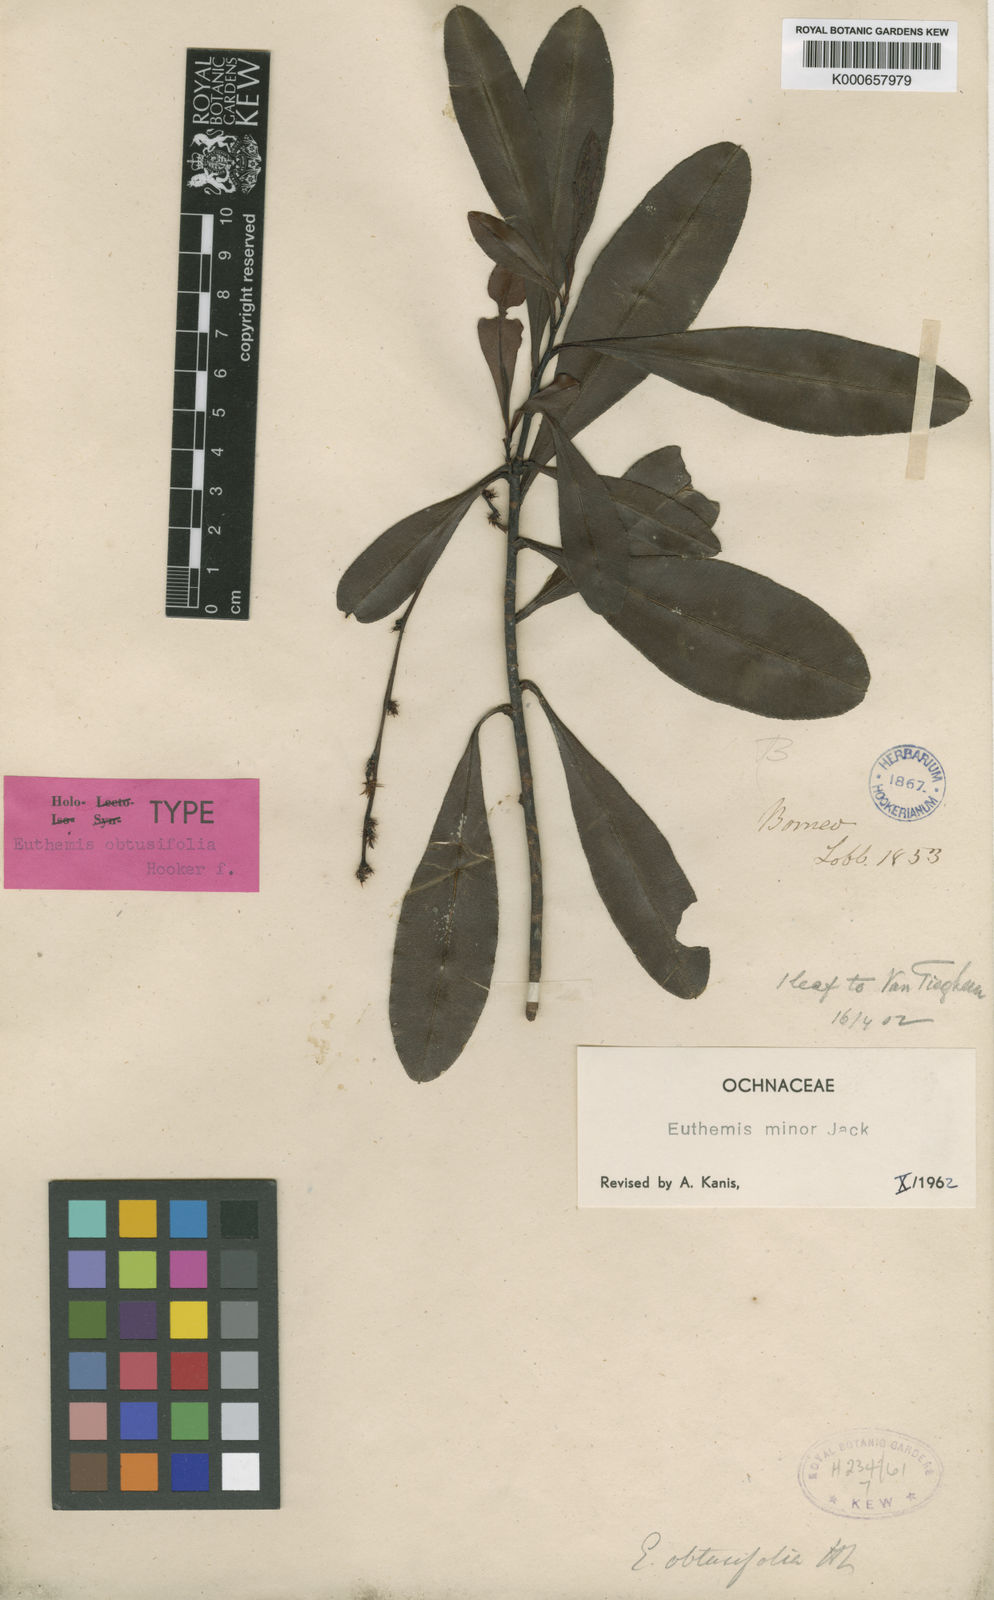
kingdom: Plantae
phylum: Tracheophyta
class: Magnoliopsida
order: Malpighiales
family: Ochnaceae
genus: Euthemis
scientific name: Euthemis minor
